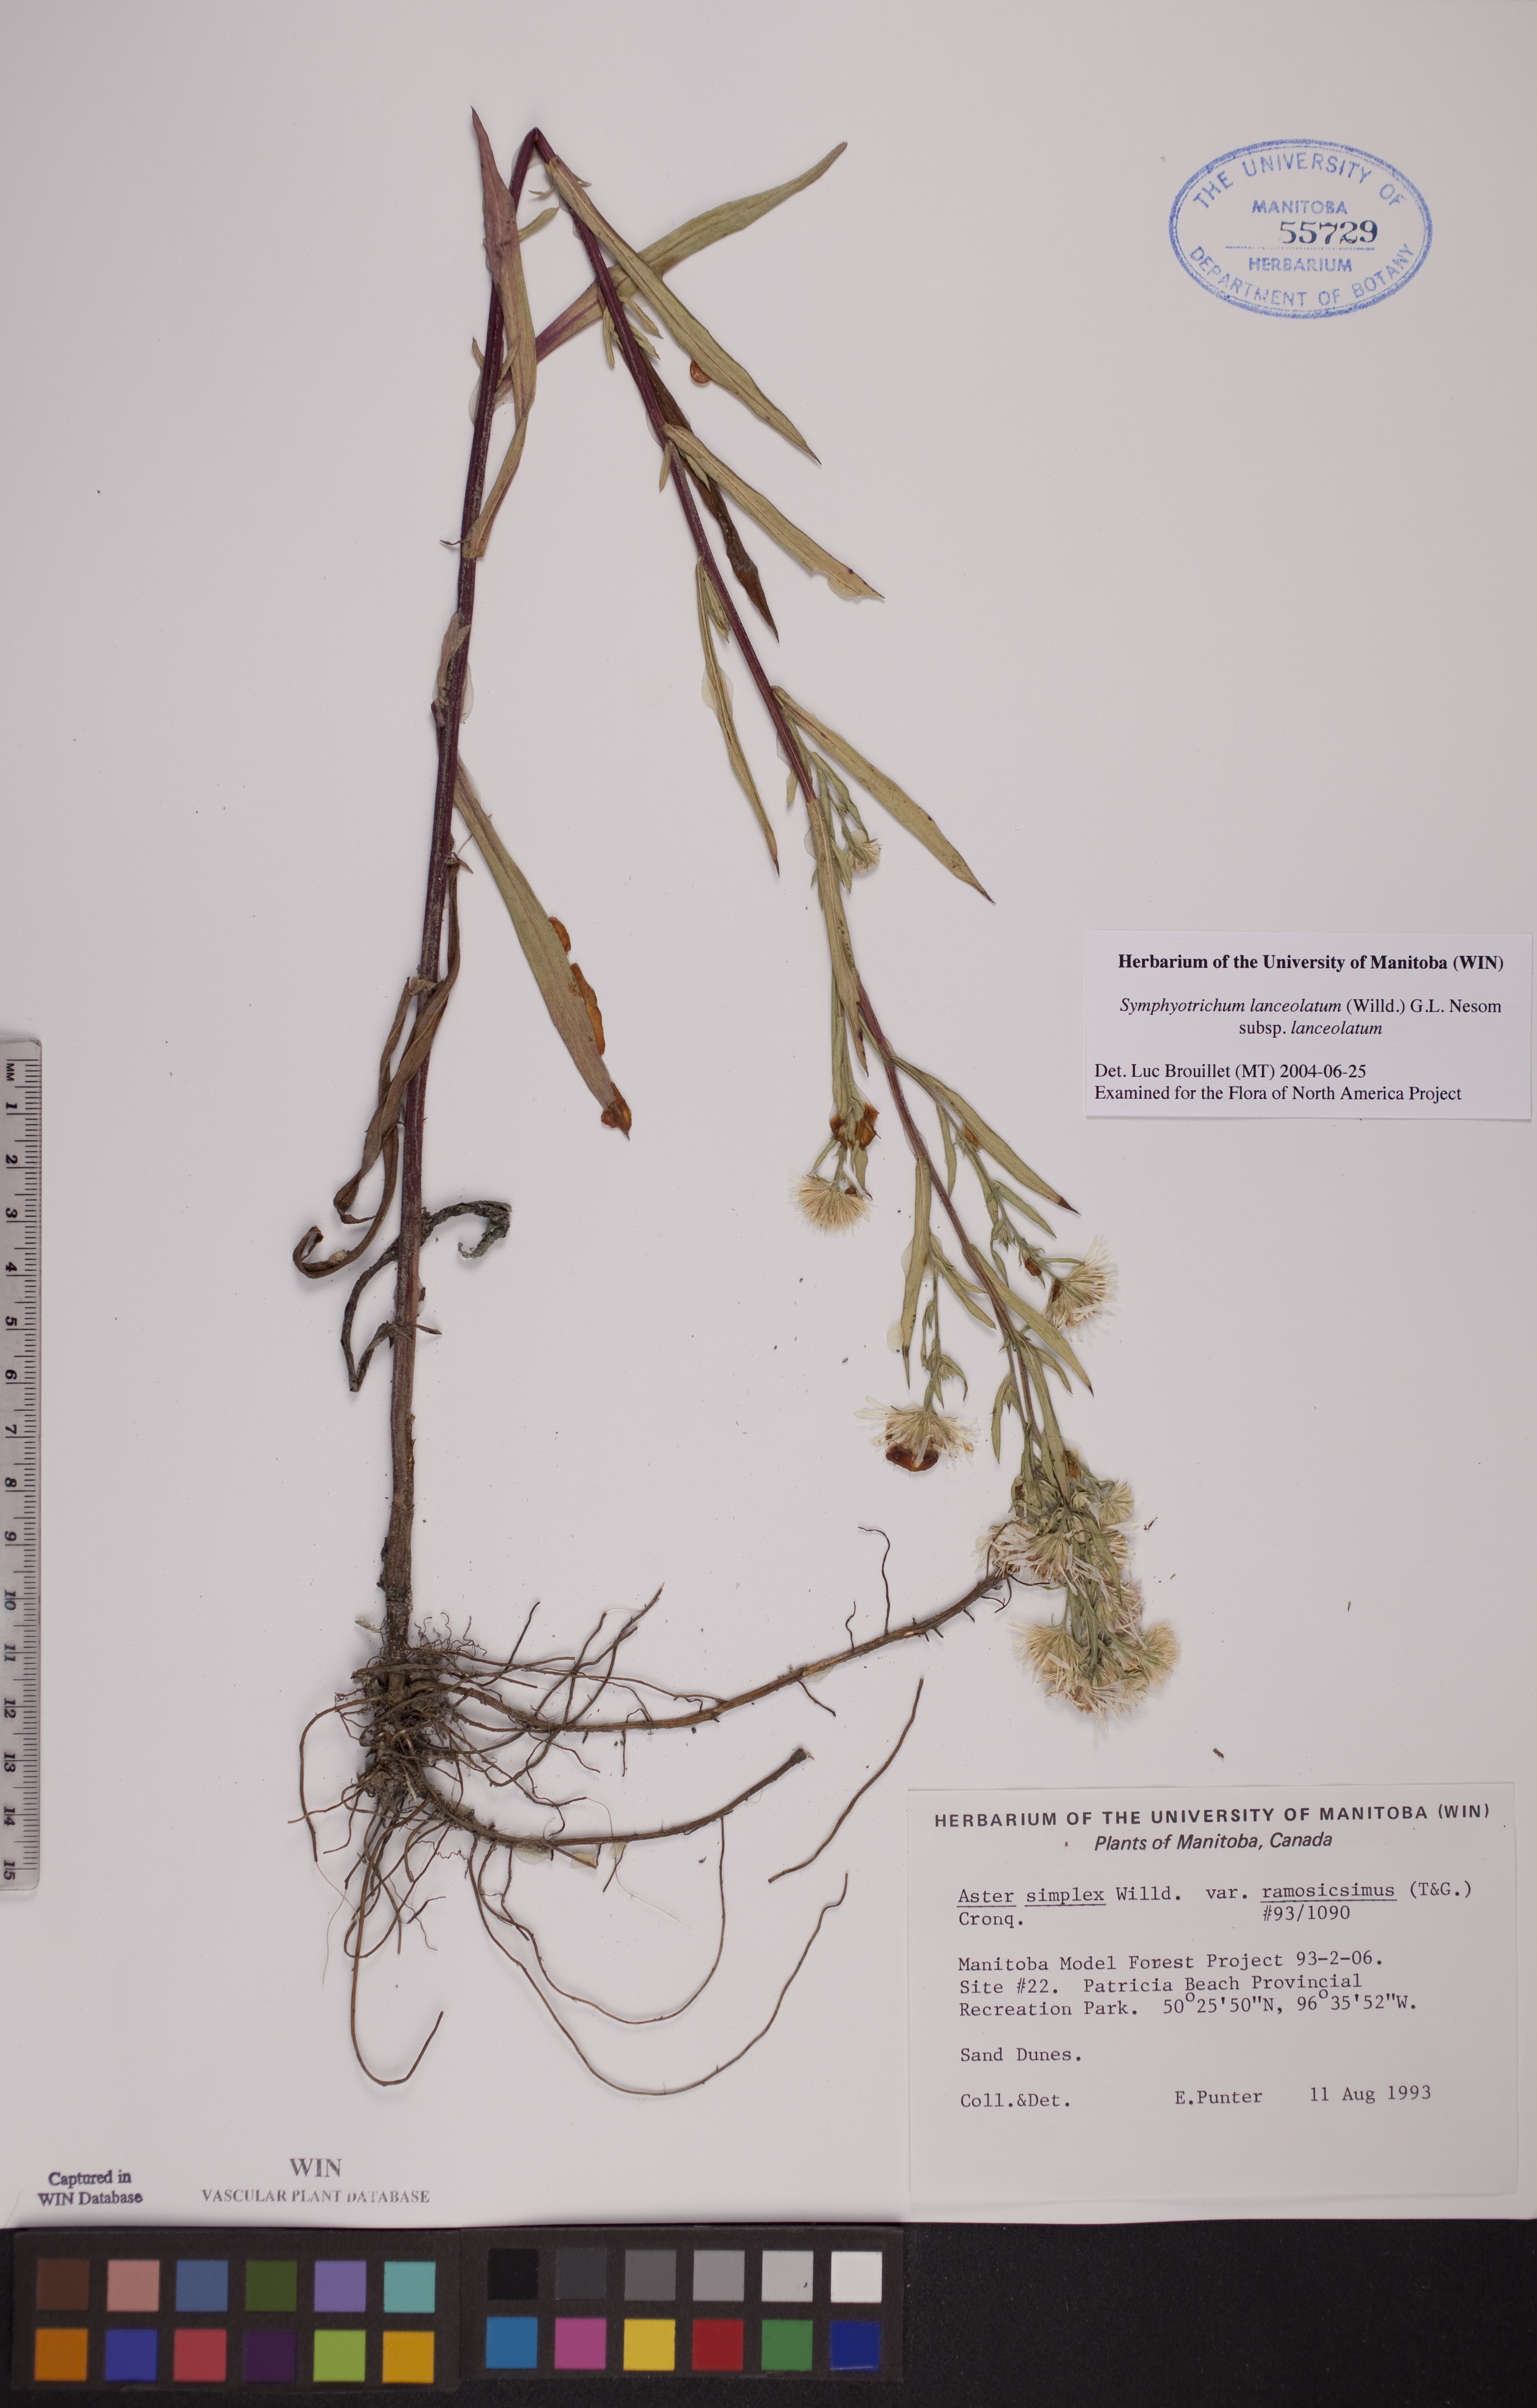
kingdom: Plantae
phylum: Tracheophyta
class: Magnoliopsida
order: Asterales
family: Asteraceae
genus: Symphyotrichum
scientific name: Symphyotrichum lanceolatum
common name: Panicled aster
